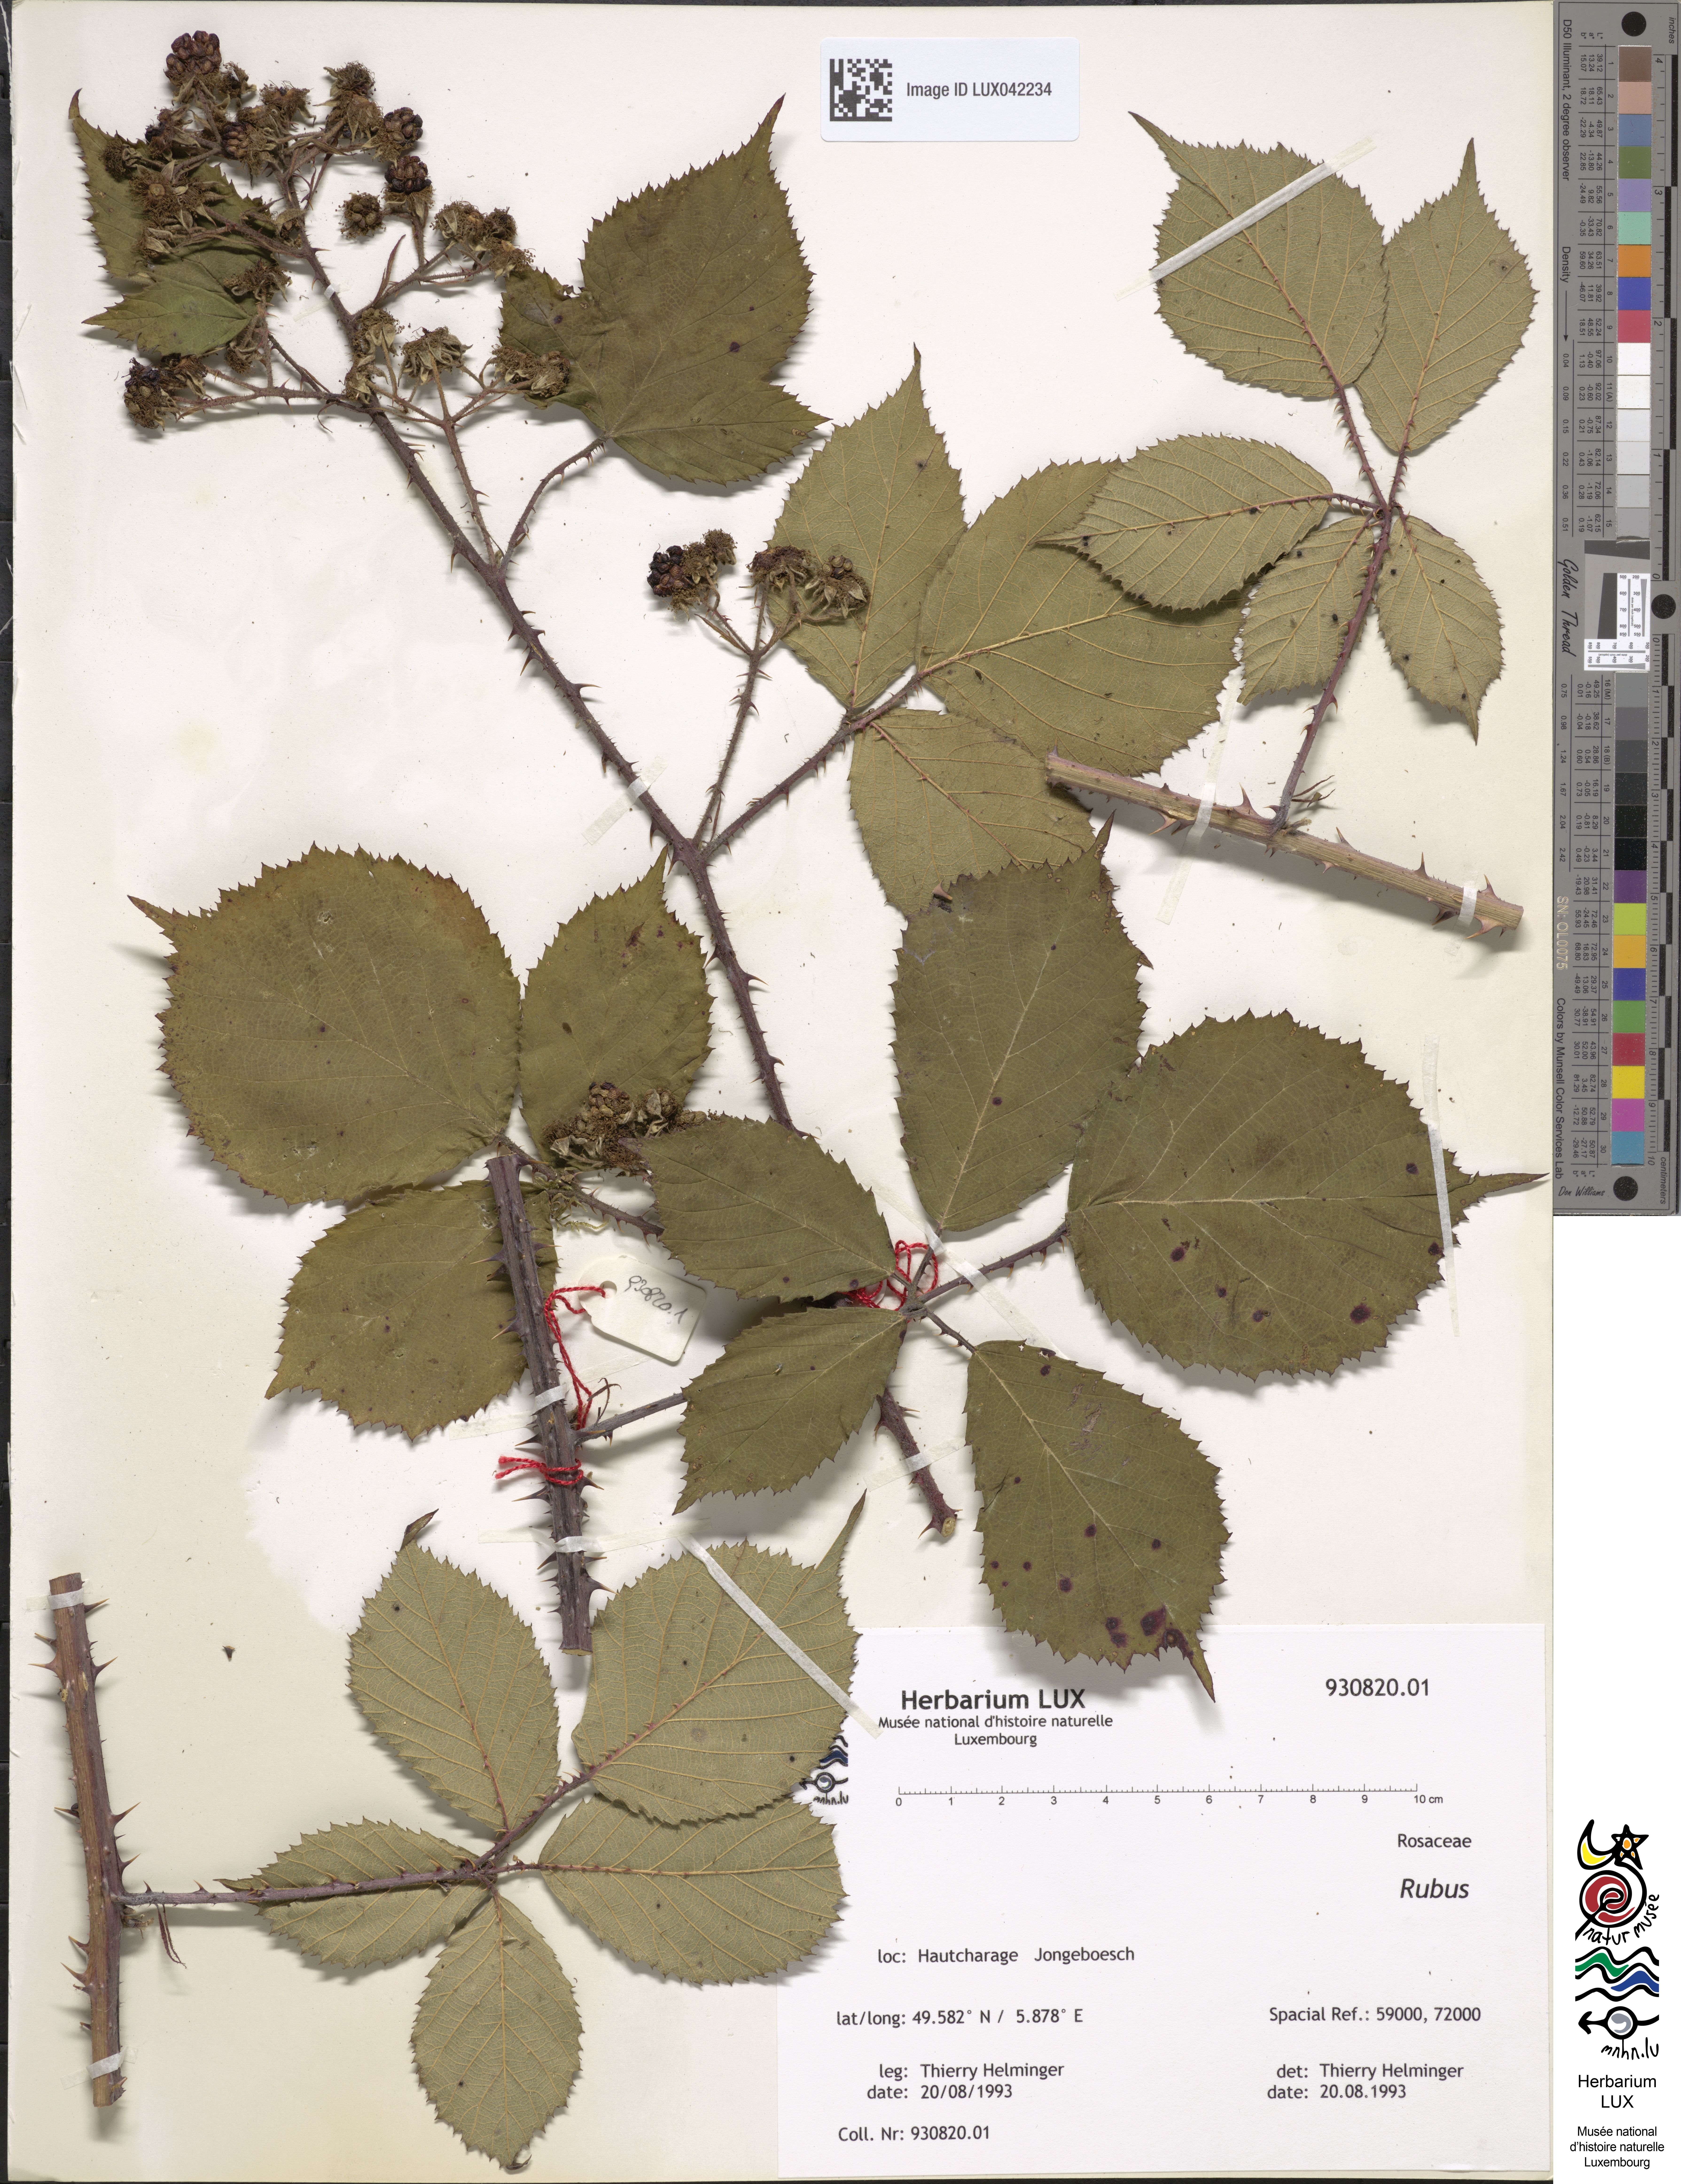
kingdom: Plantae
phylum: Tracheophyta
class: Magnoliopsida
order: Rosales
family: Rosaceae
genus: Rubus
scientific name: Rubus
